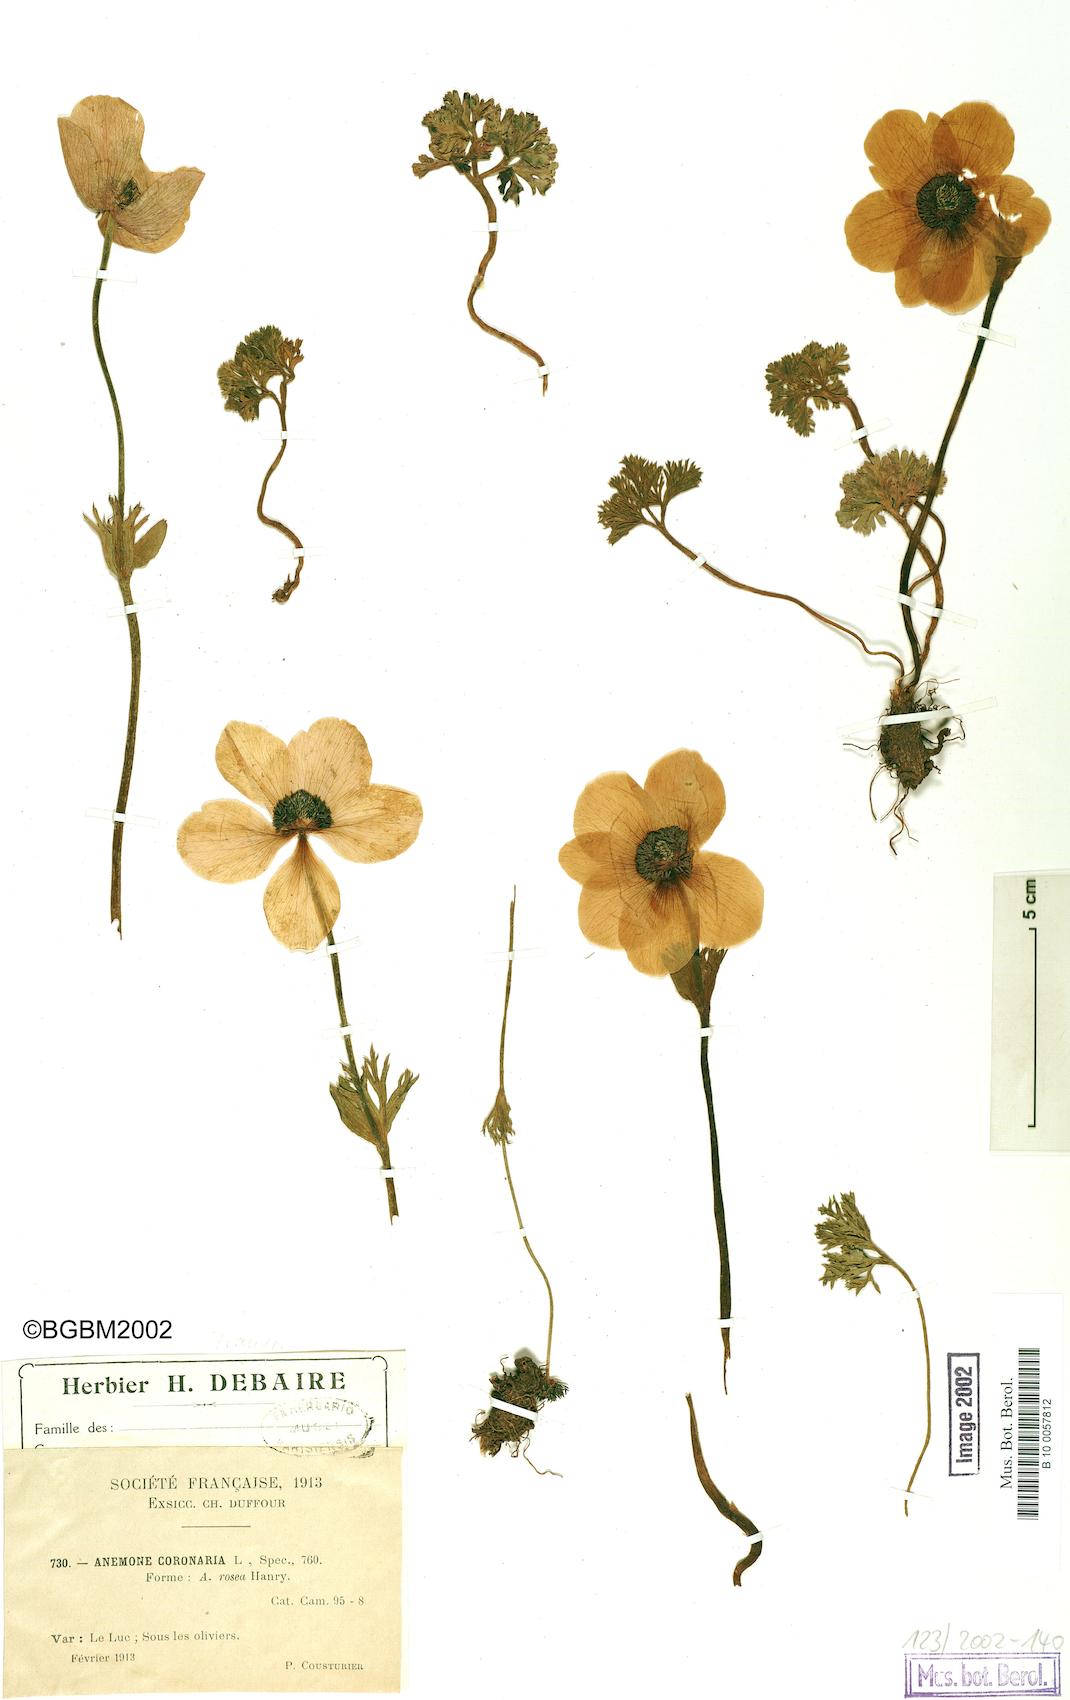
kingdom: Plantae
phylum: Tracheophyta
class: Magnoliopsida
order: Ranunculales
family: Ranunculaceae
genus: Anemone
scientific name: Anemone coronaria
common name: Poppy anemone
